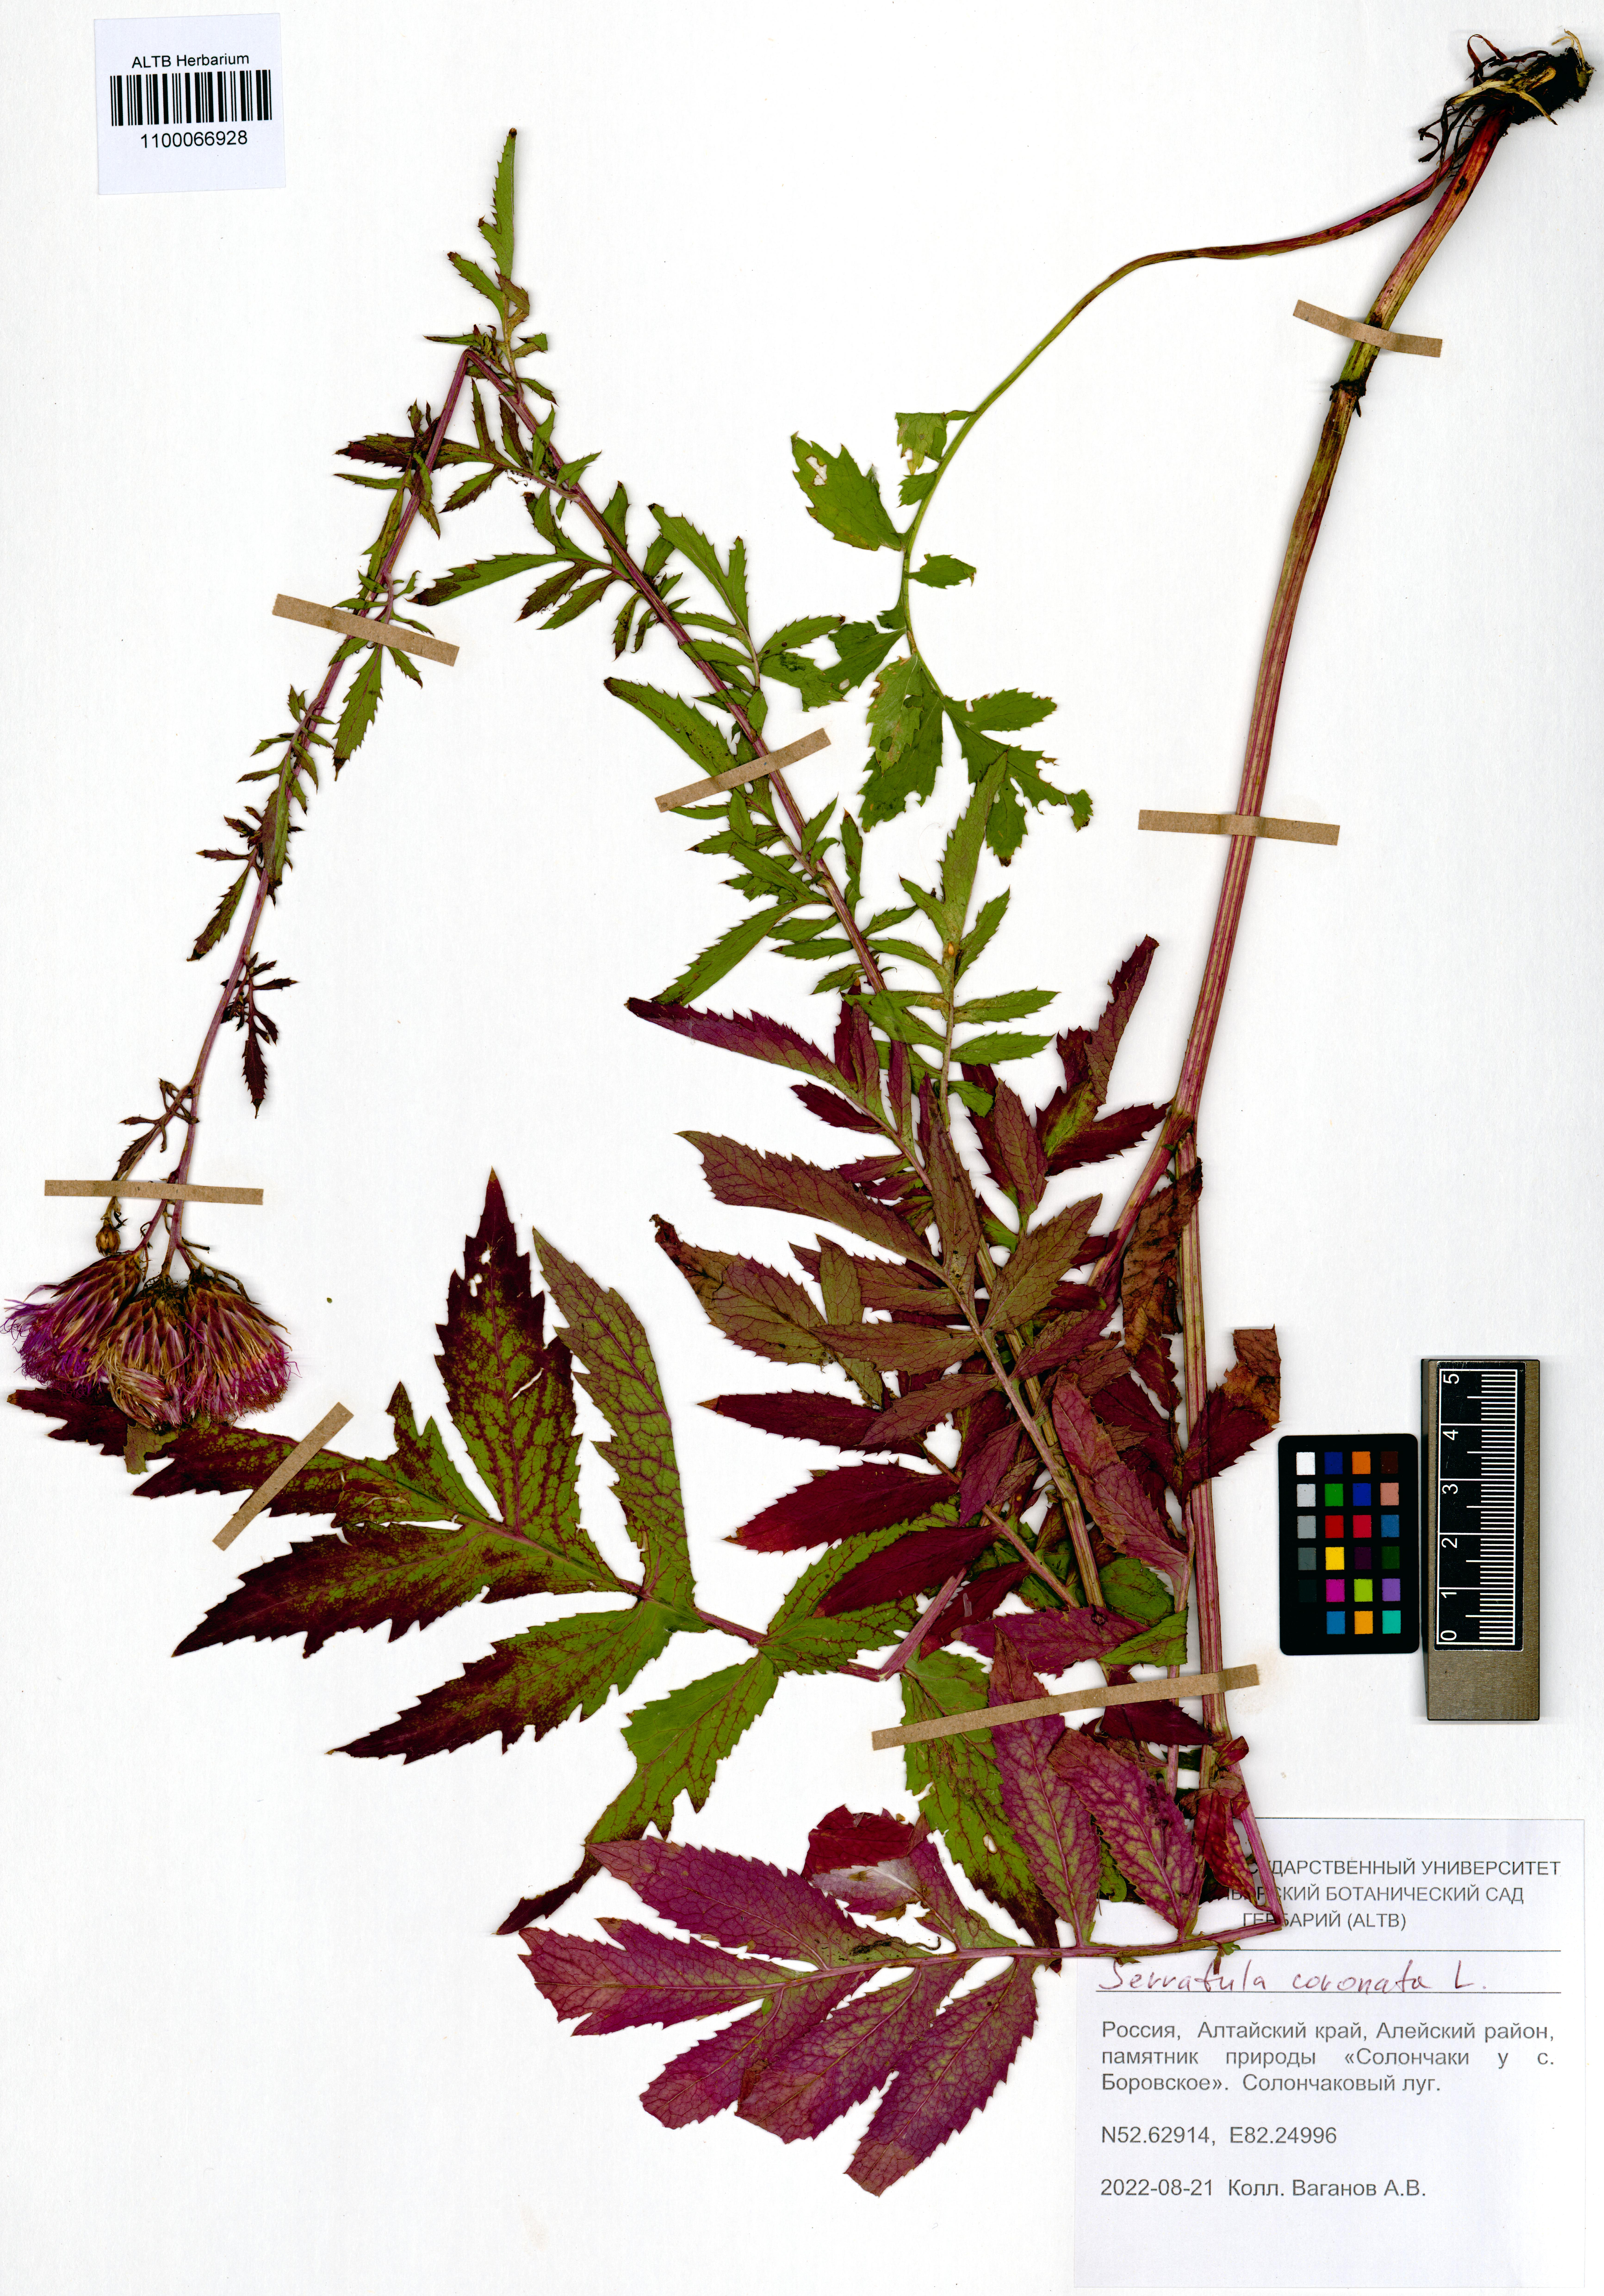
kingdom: Plantae
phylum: Tracheophyta
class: Magnoliopsida
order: Asterales
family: Asteraceae
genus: Serratula
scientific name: Serratula coronata
